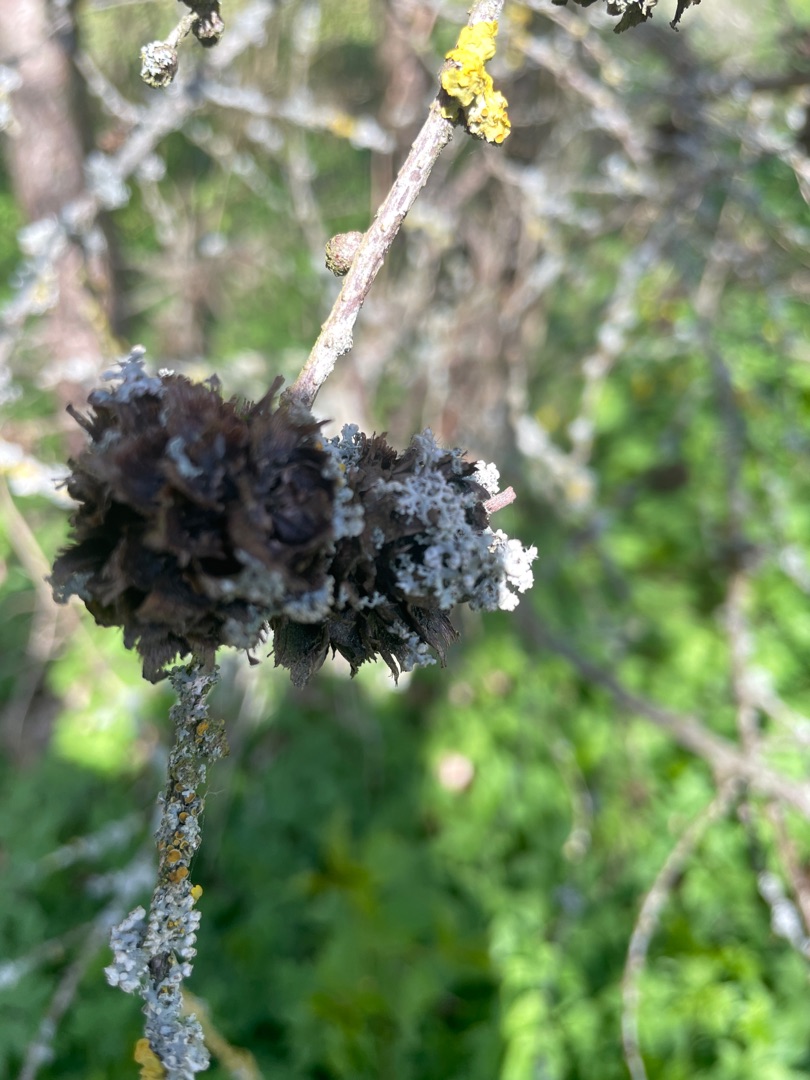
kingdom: Fungi
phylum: Ascomycota
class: Lecanoromycetes
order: Caliciales
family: Physciaceae
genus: Physcia
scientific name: Physcia adscendens
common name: Hætte-rosetlav
